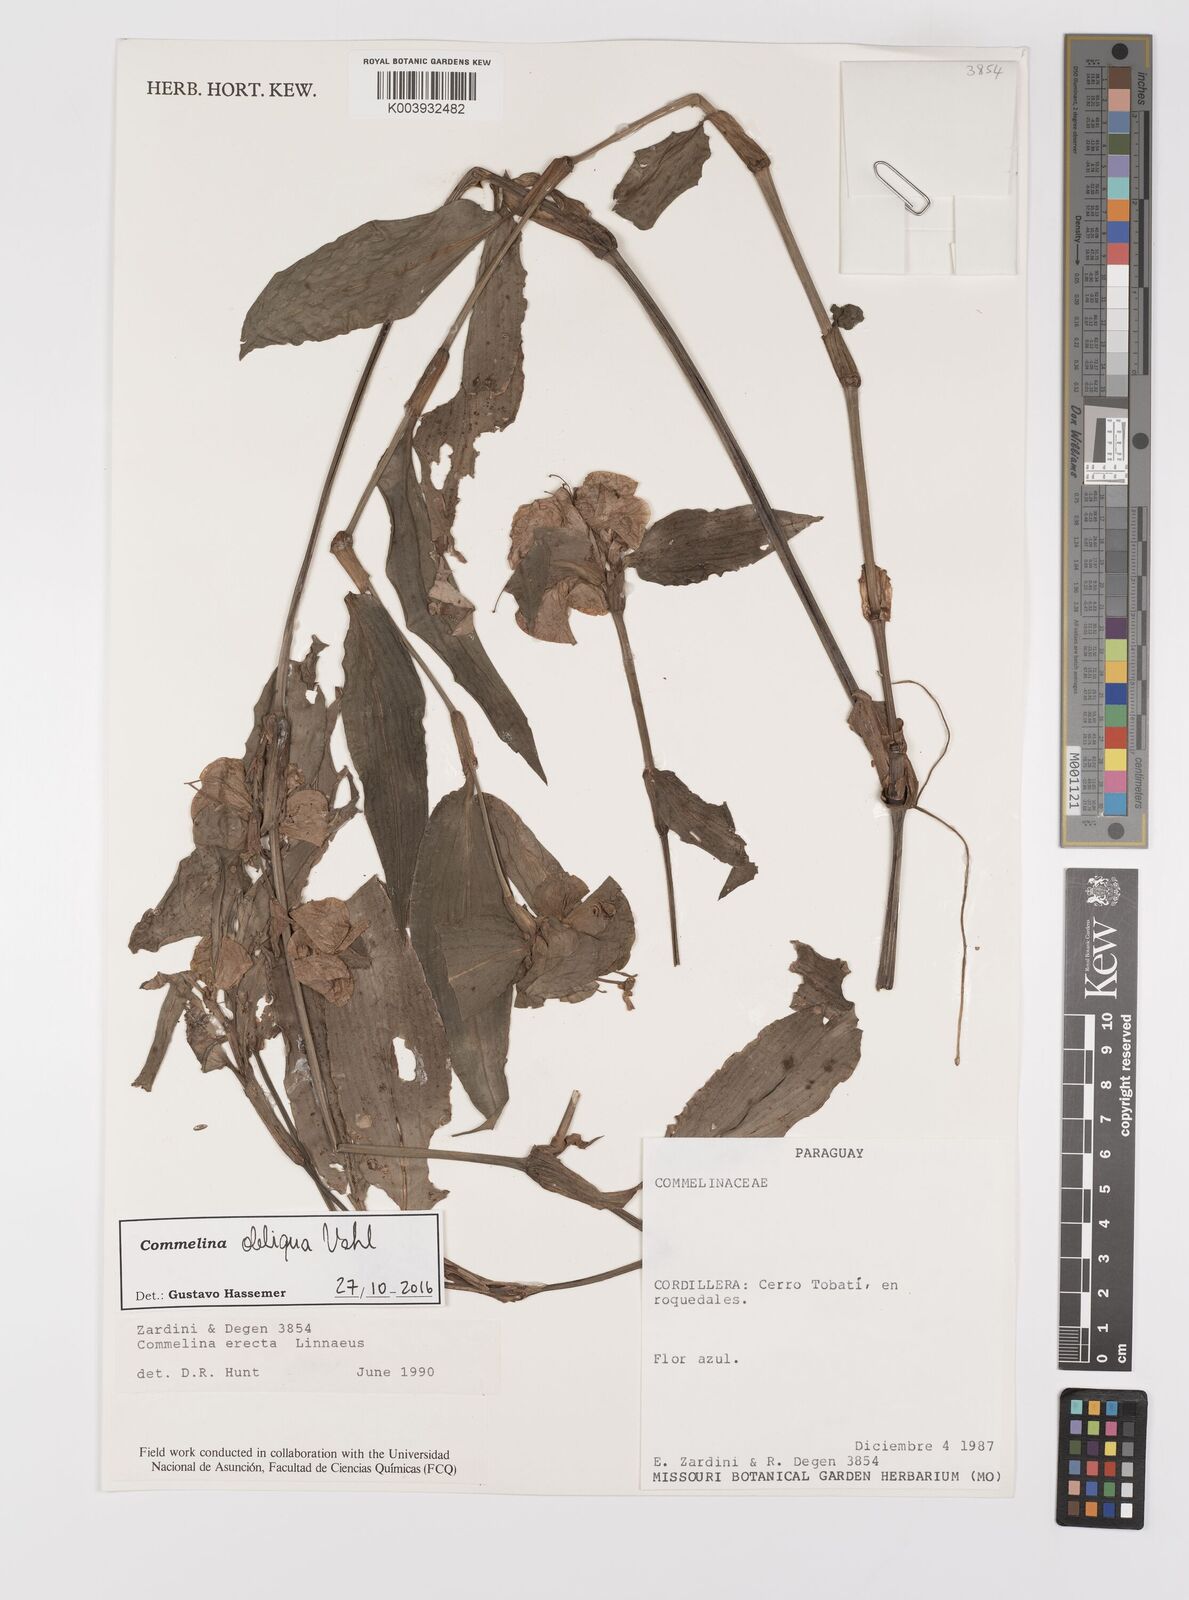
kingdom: Plantae
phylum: Tracheophyta
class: Liliopsida
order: Commelinales
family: Commelinaceae
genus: Commelina
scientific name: Commelina obliqua
